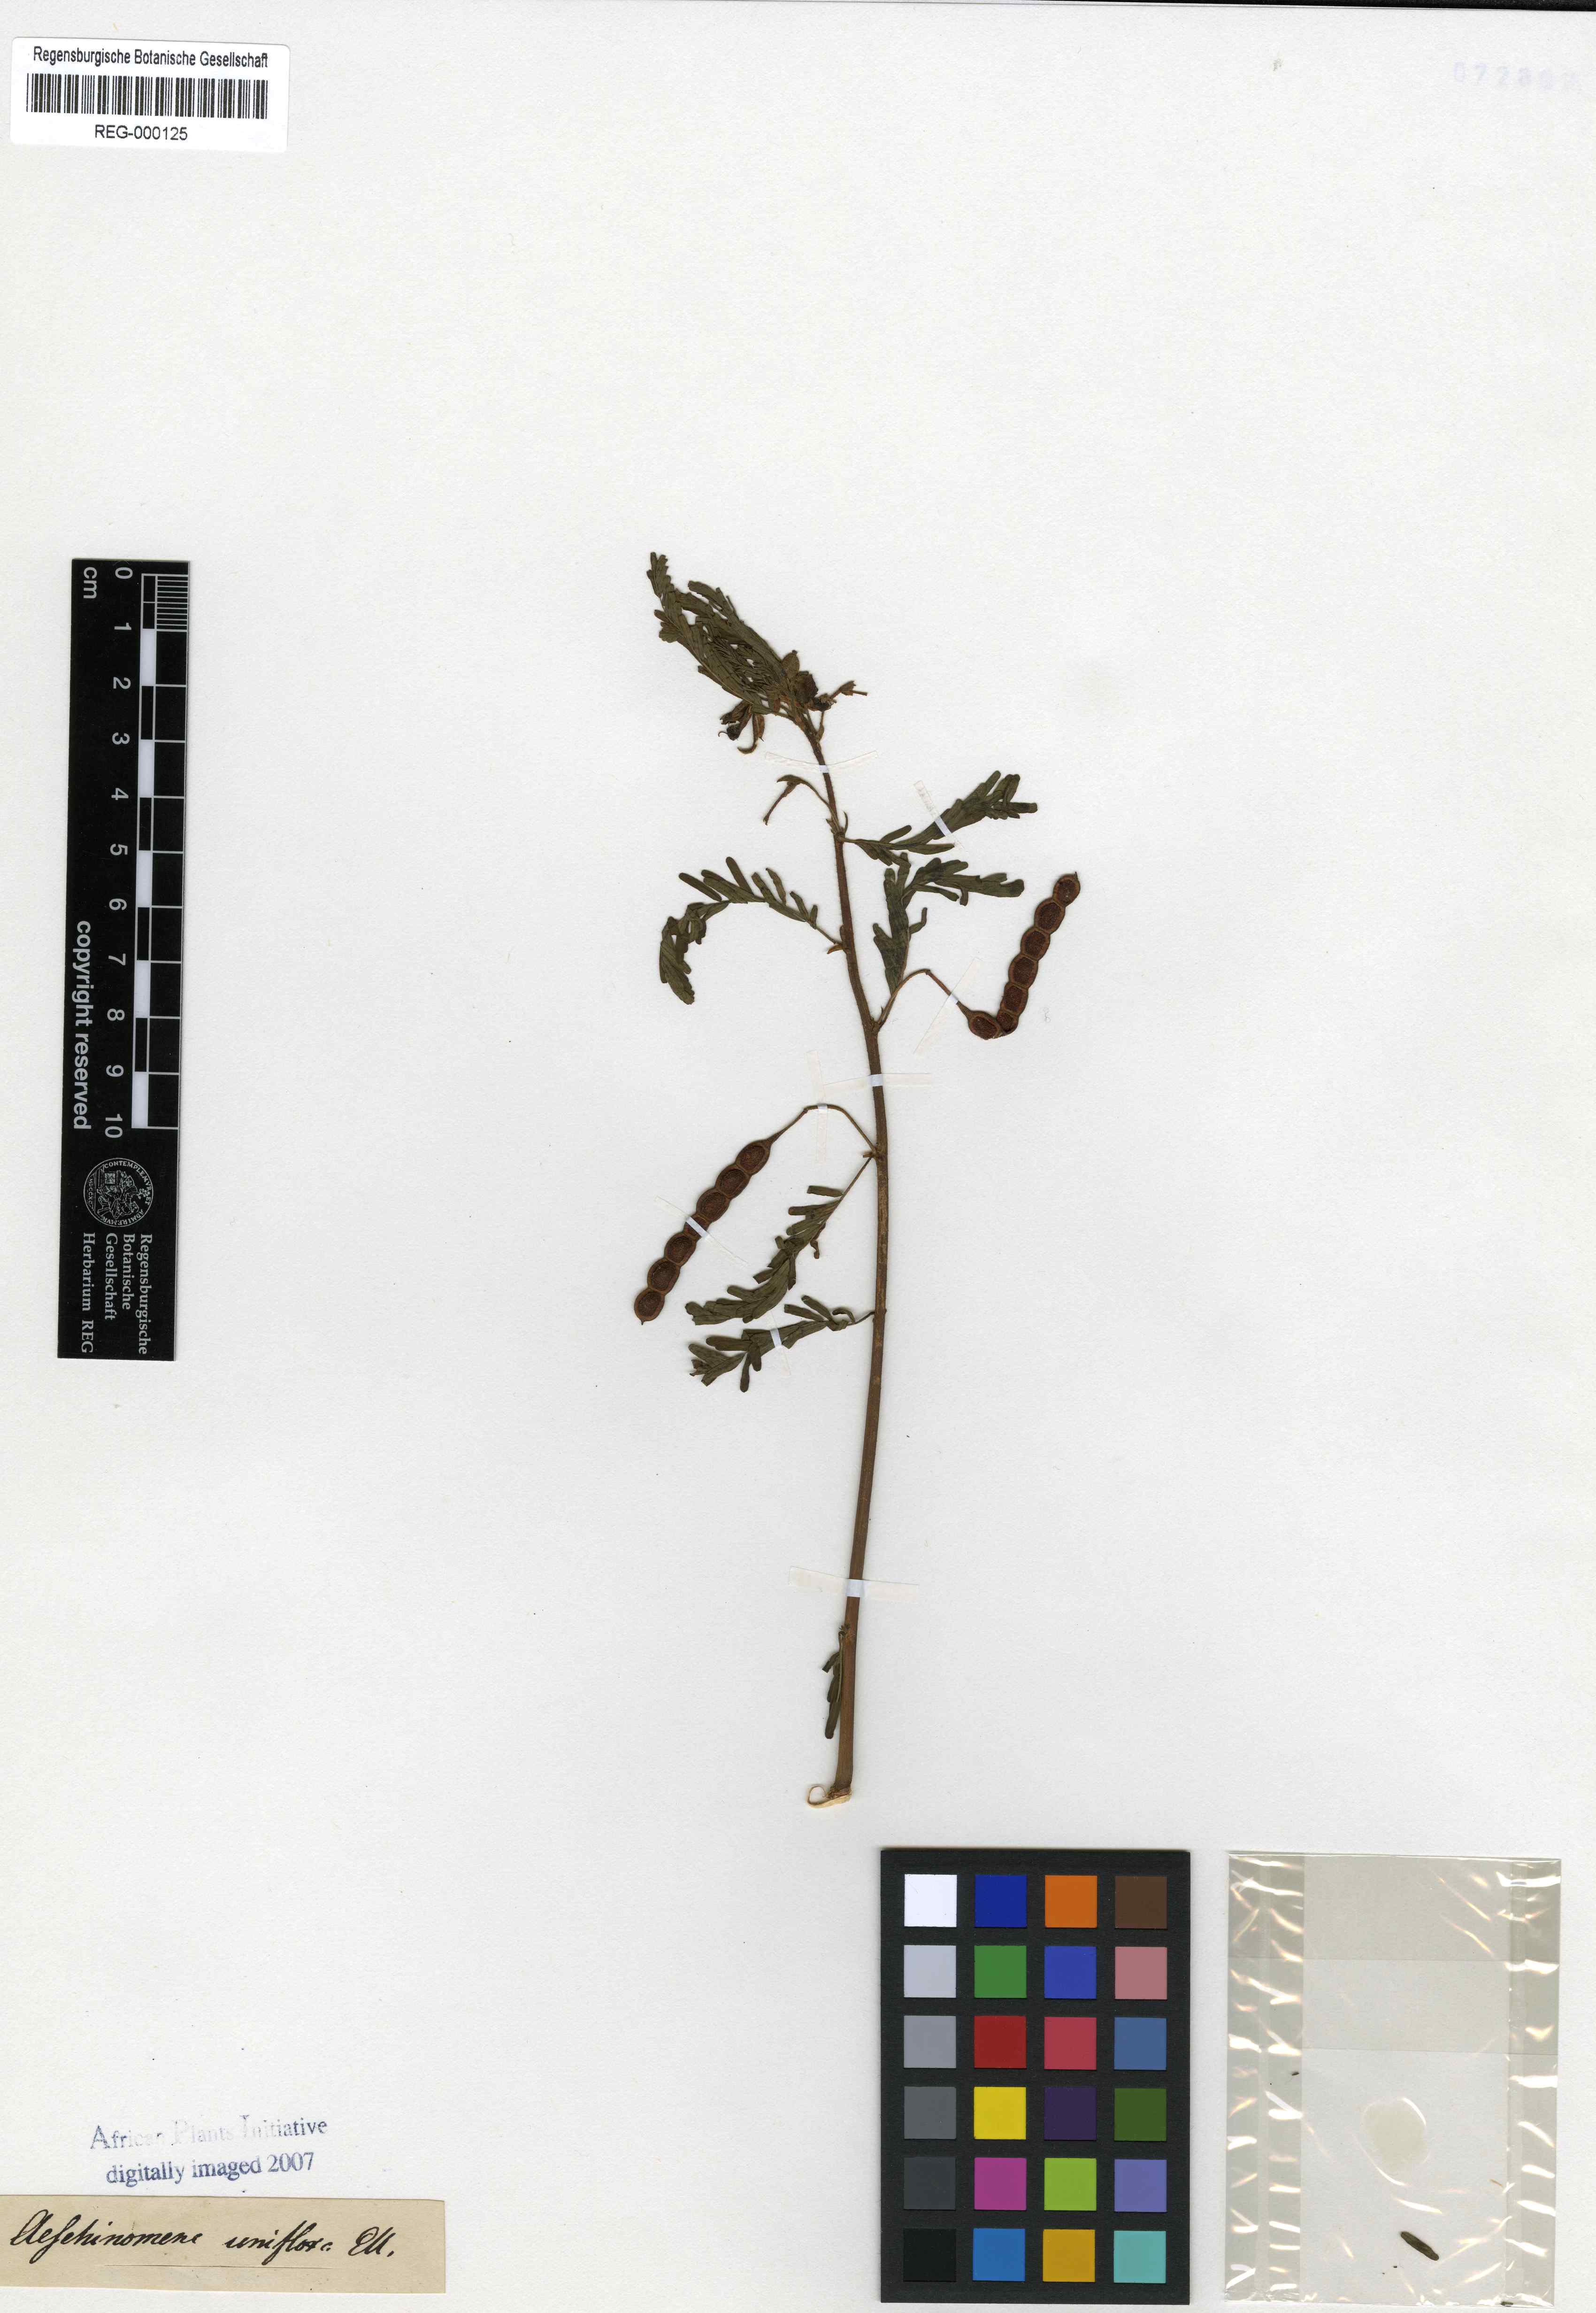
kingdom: Plantae
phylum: Tracheophyta
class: Magnoliopsida
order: Fabales
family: Fabaceae
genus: Aeschynomene
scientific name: Aeschynomene uniflora
